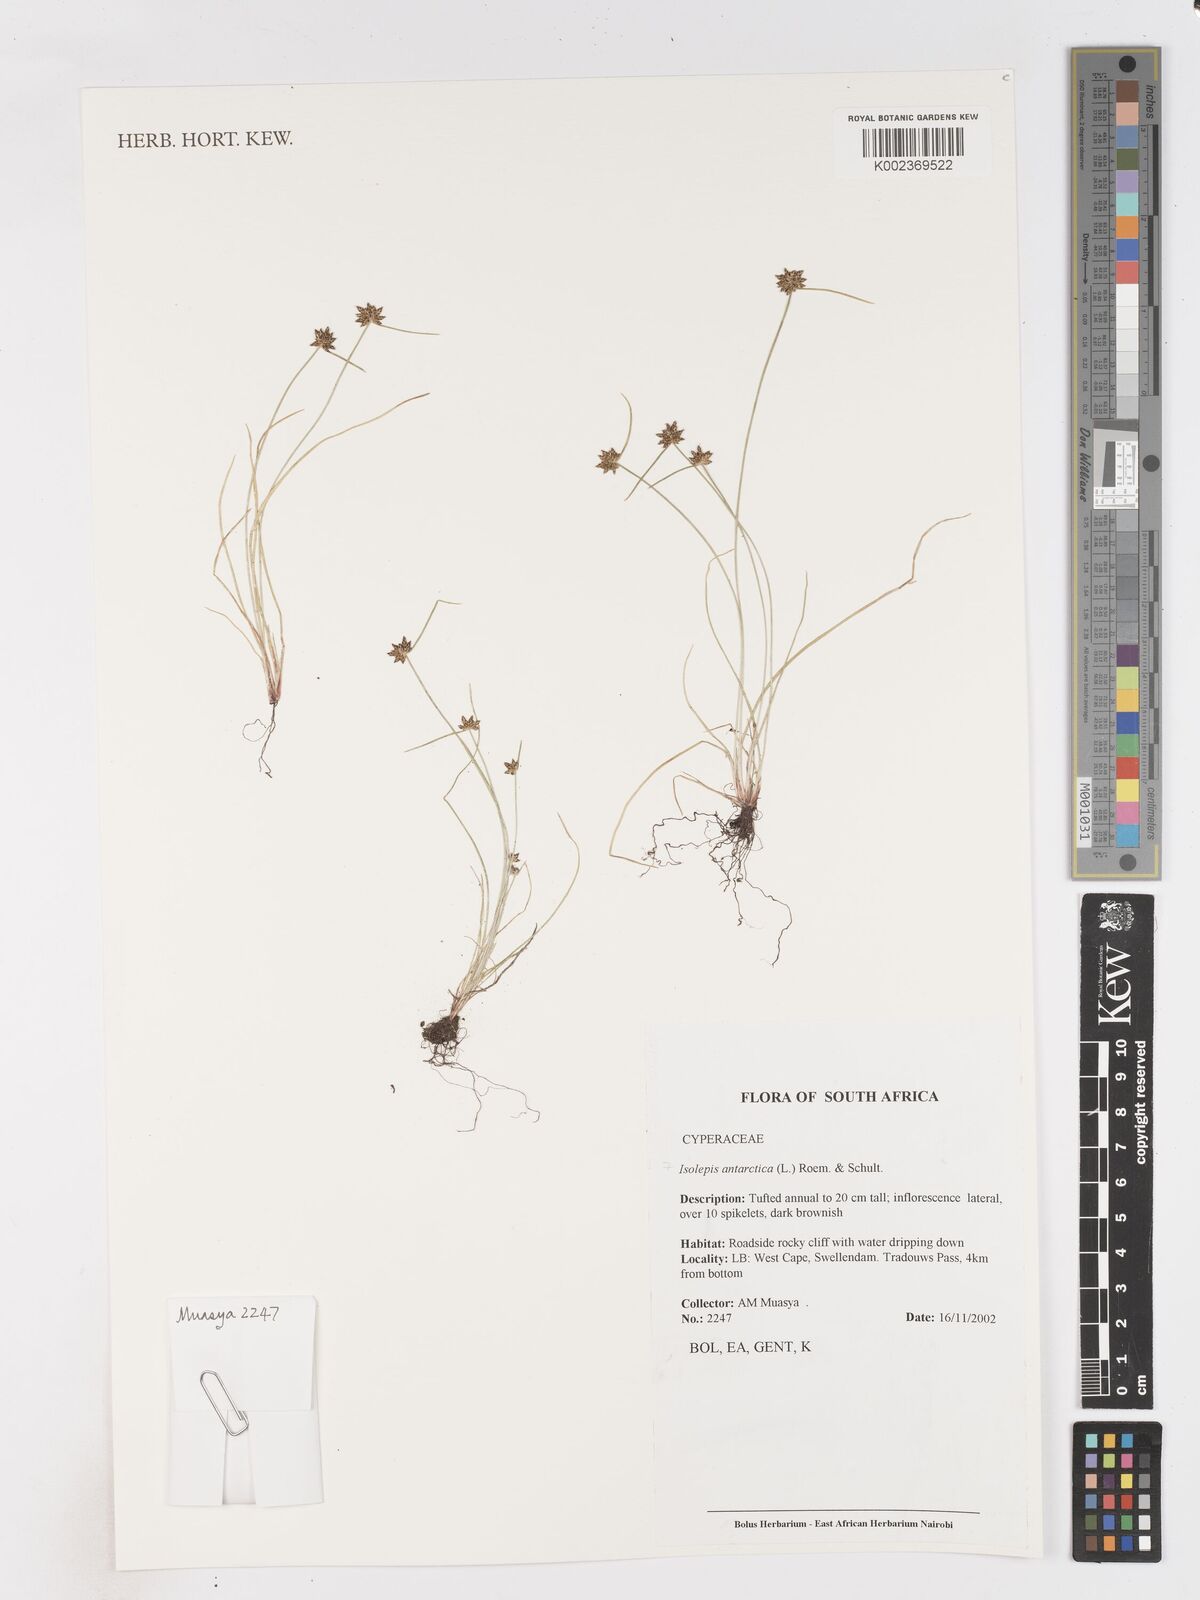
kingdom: Plantae
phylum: Tracheophyta
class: Liliopsida
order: Poales
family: Cyperaceae
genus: Isolepis
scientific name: Isolepis antarctica
